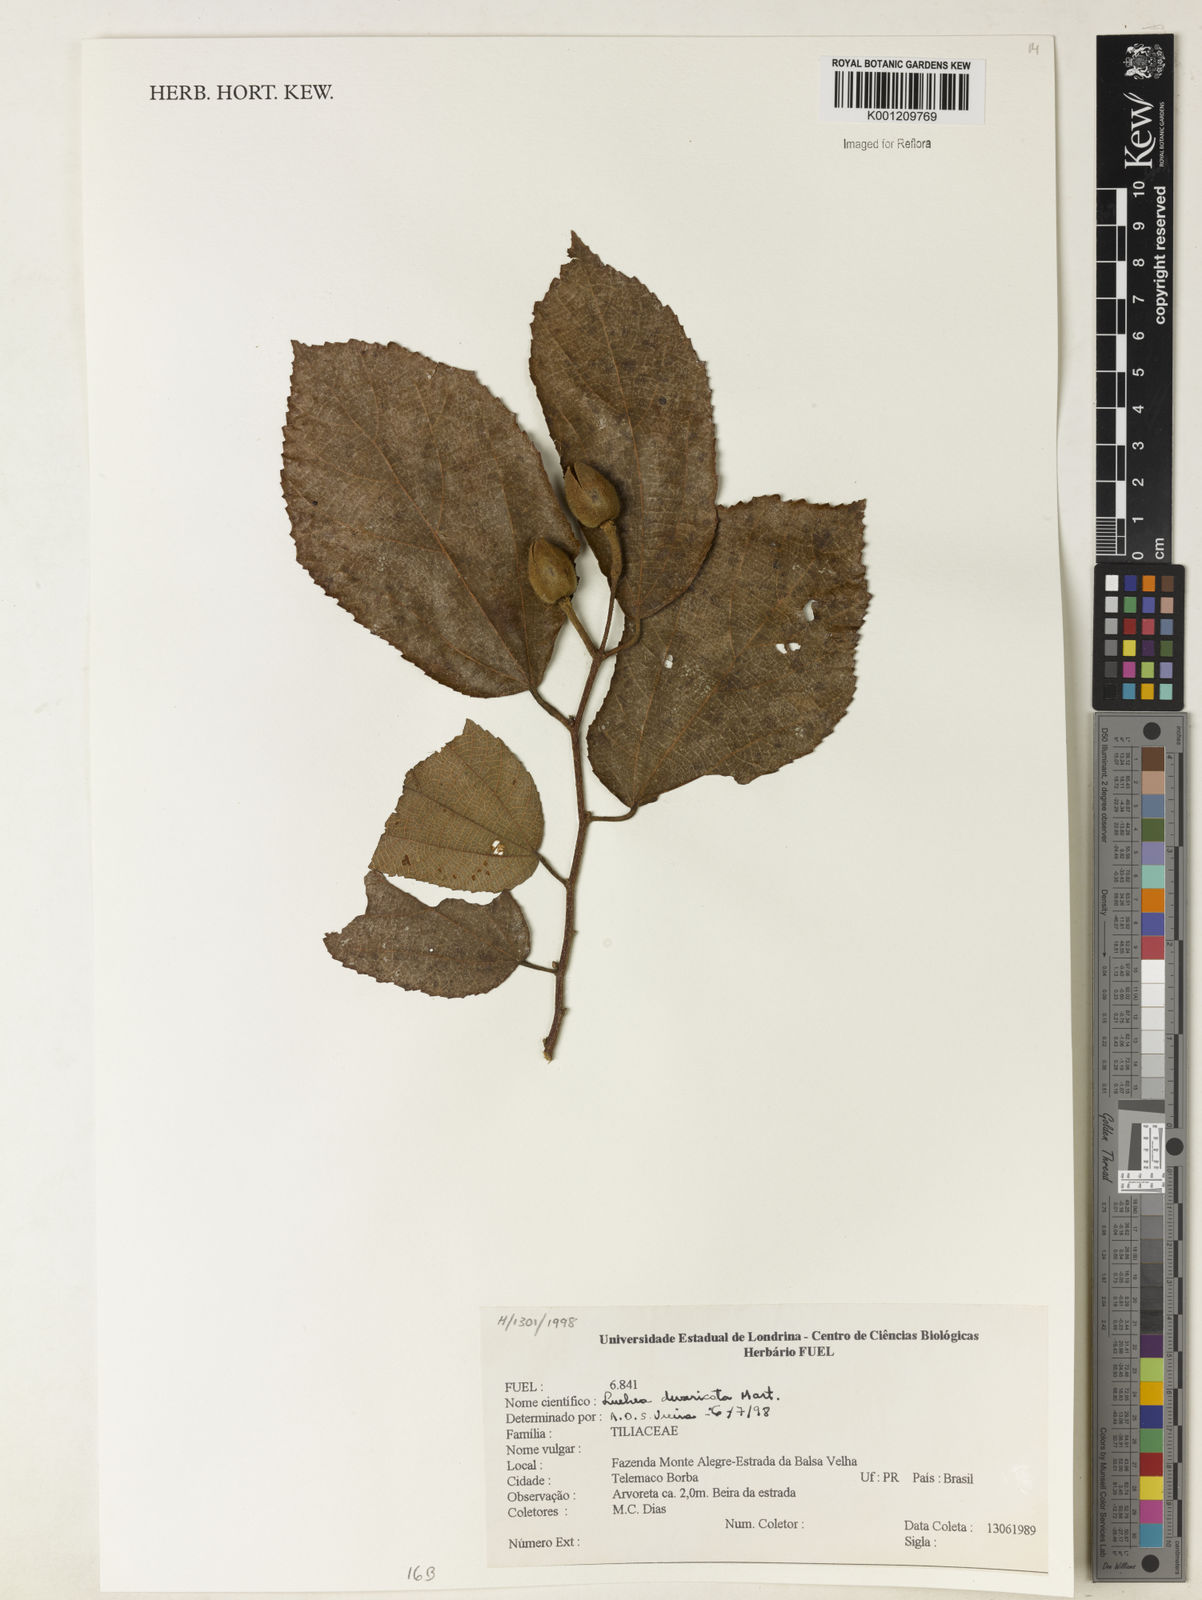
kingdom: Plantae
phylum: Tracheophyta
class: Magnoliopsida
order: Malvales
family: Malvaceae
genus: Luehea
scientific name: Luehea divaricata
